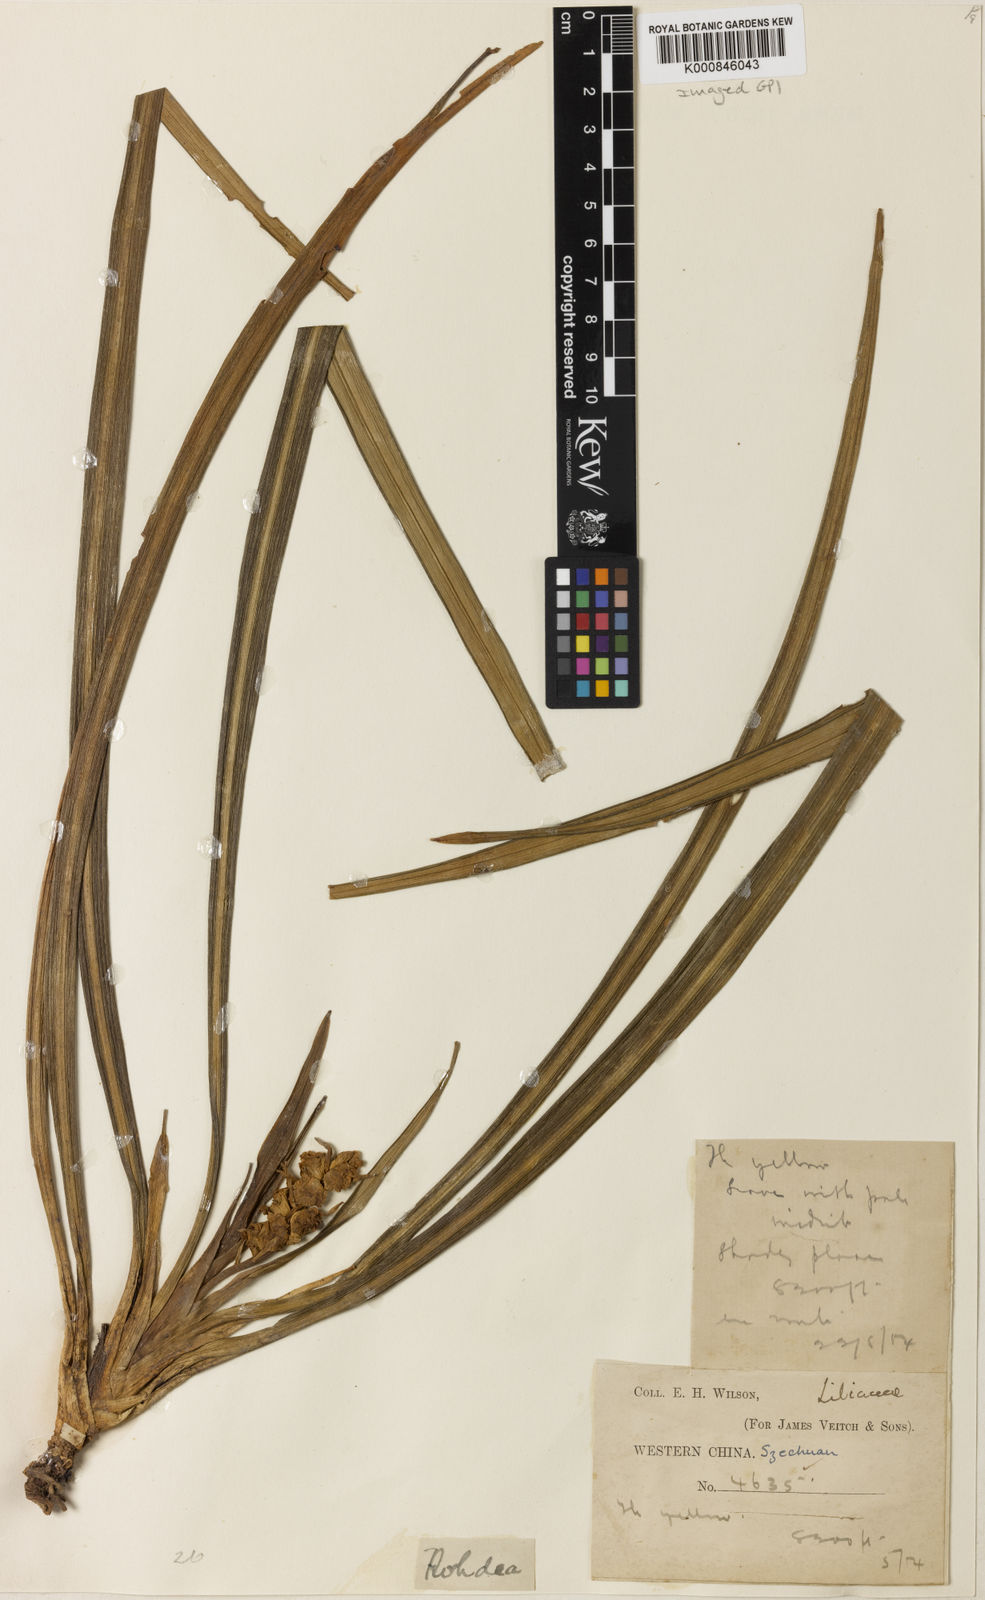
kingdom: Plantae
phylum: Tracheophyta
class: Liliopsida
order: Asparagales
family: Asparagaceae
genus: Tupistra
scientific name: Tupistra
